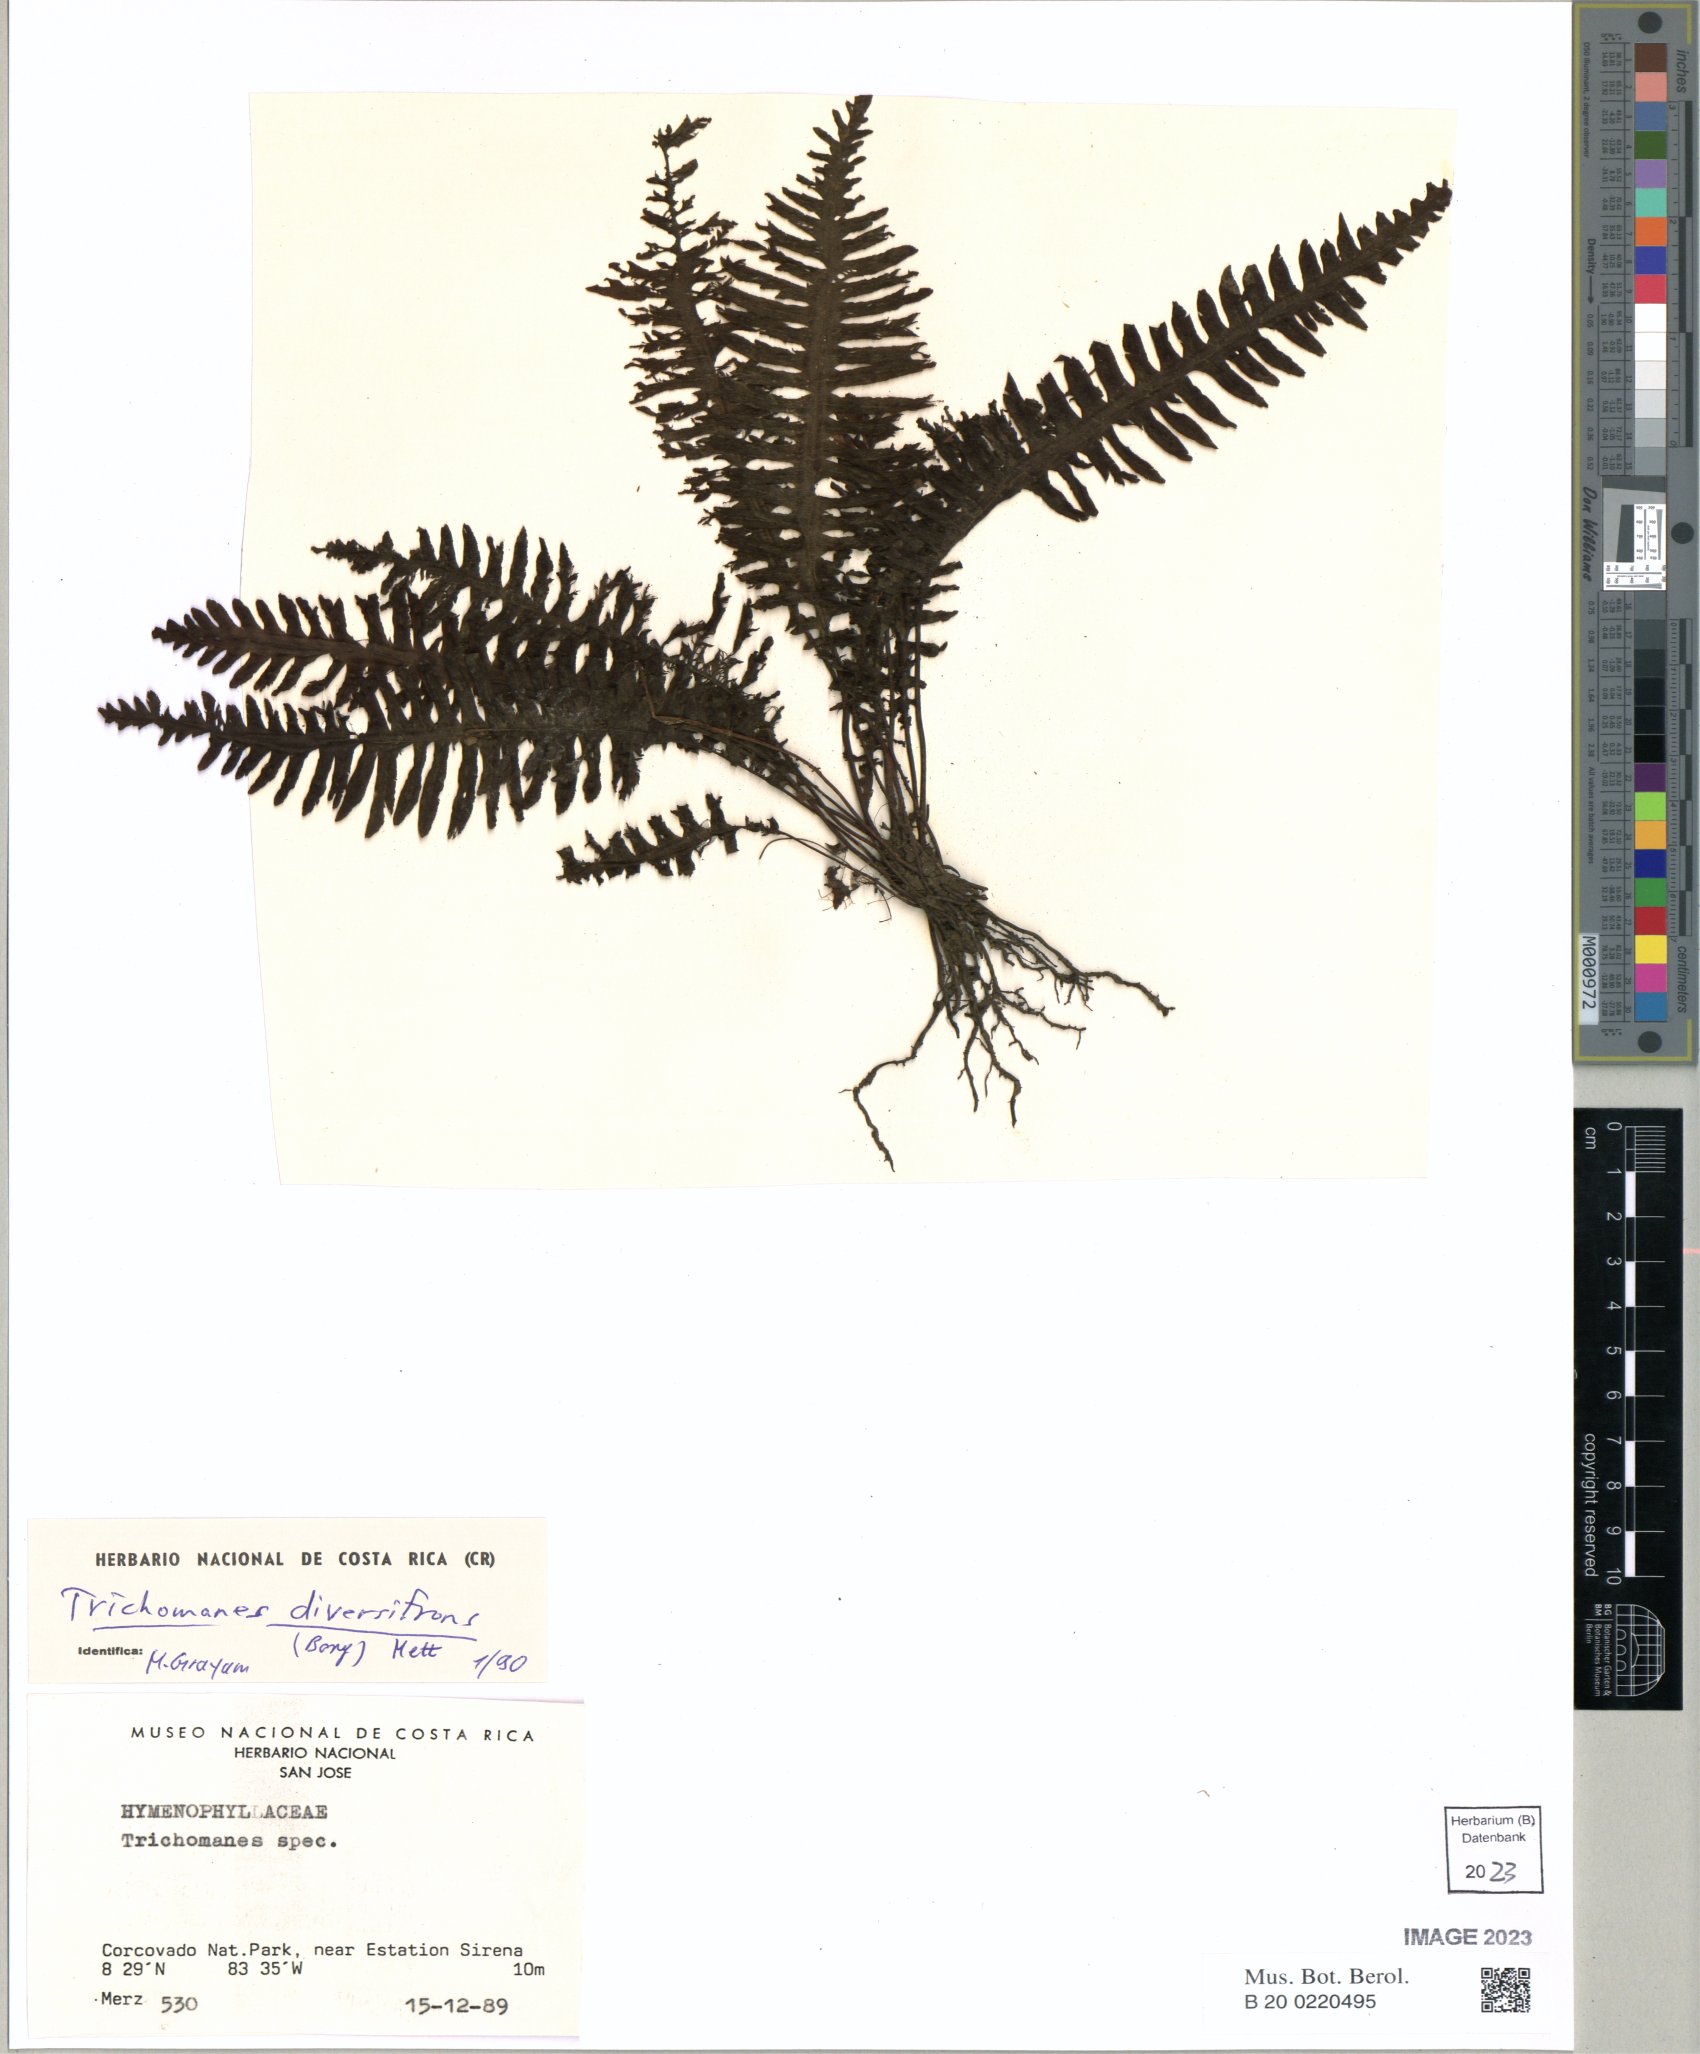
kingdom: Plantae
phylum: Tracheophyta
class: Polypodiopsida
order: Hymenophyllales
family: Hymenophyllaceae
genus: Trichomanes
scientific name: Trichomanes diversifrons
